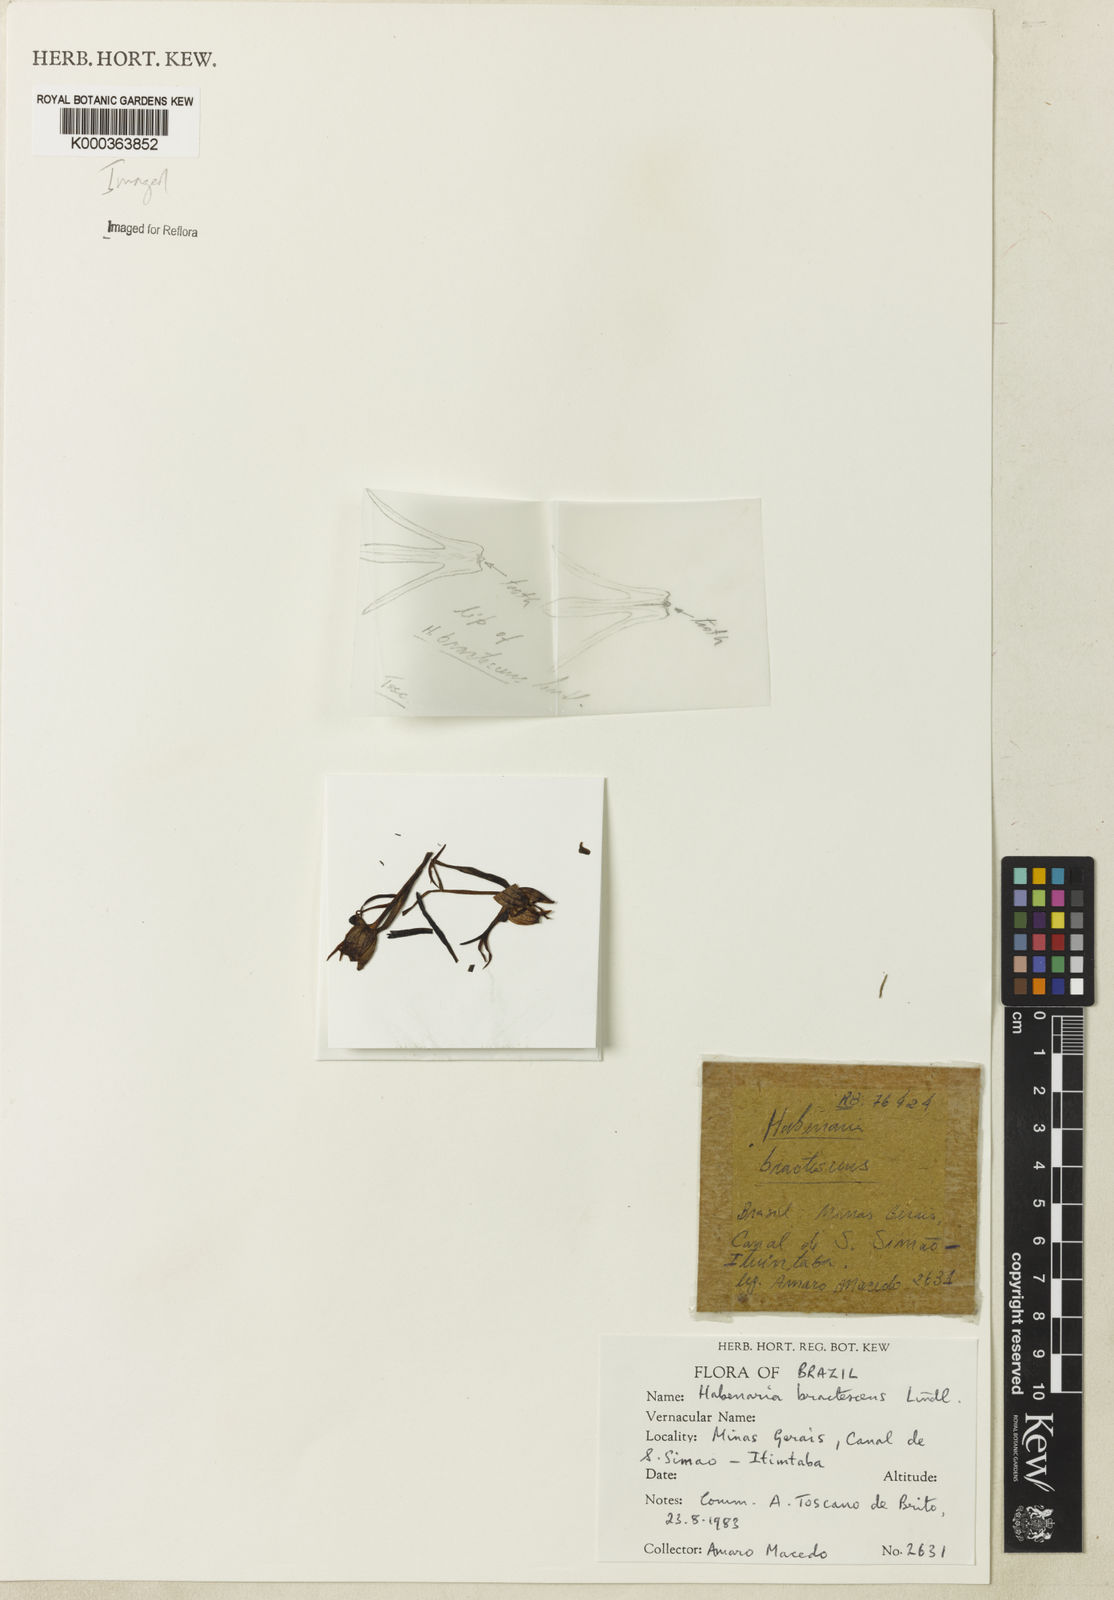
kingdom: Plantae
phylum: Tracheophyta
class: Liliopsida
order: Asparagales
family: Orchidaceae
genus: Habenaria
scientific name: Habenaria bractescens
